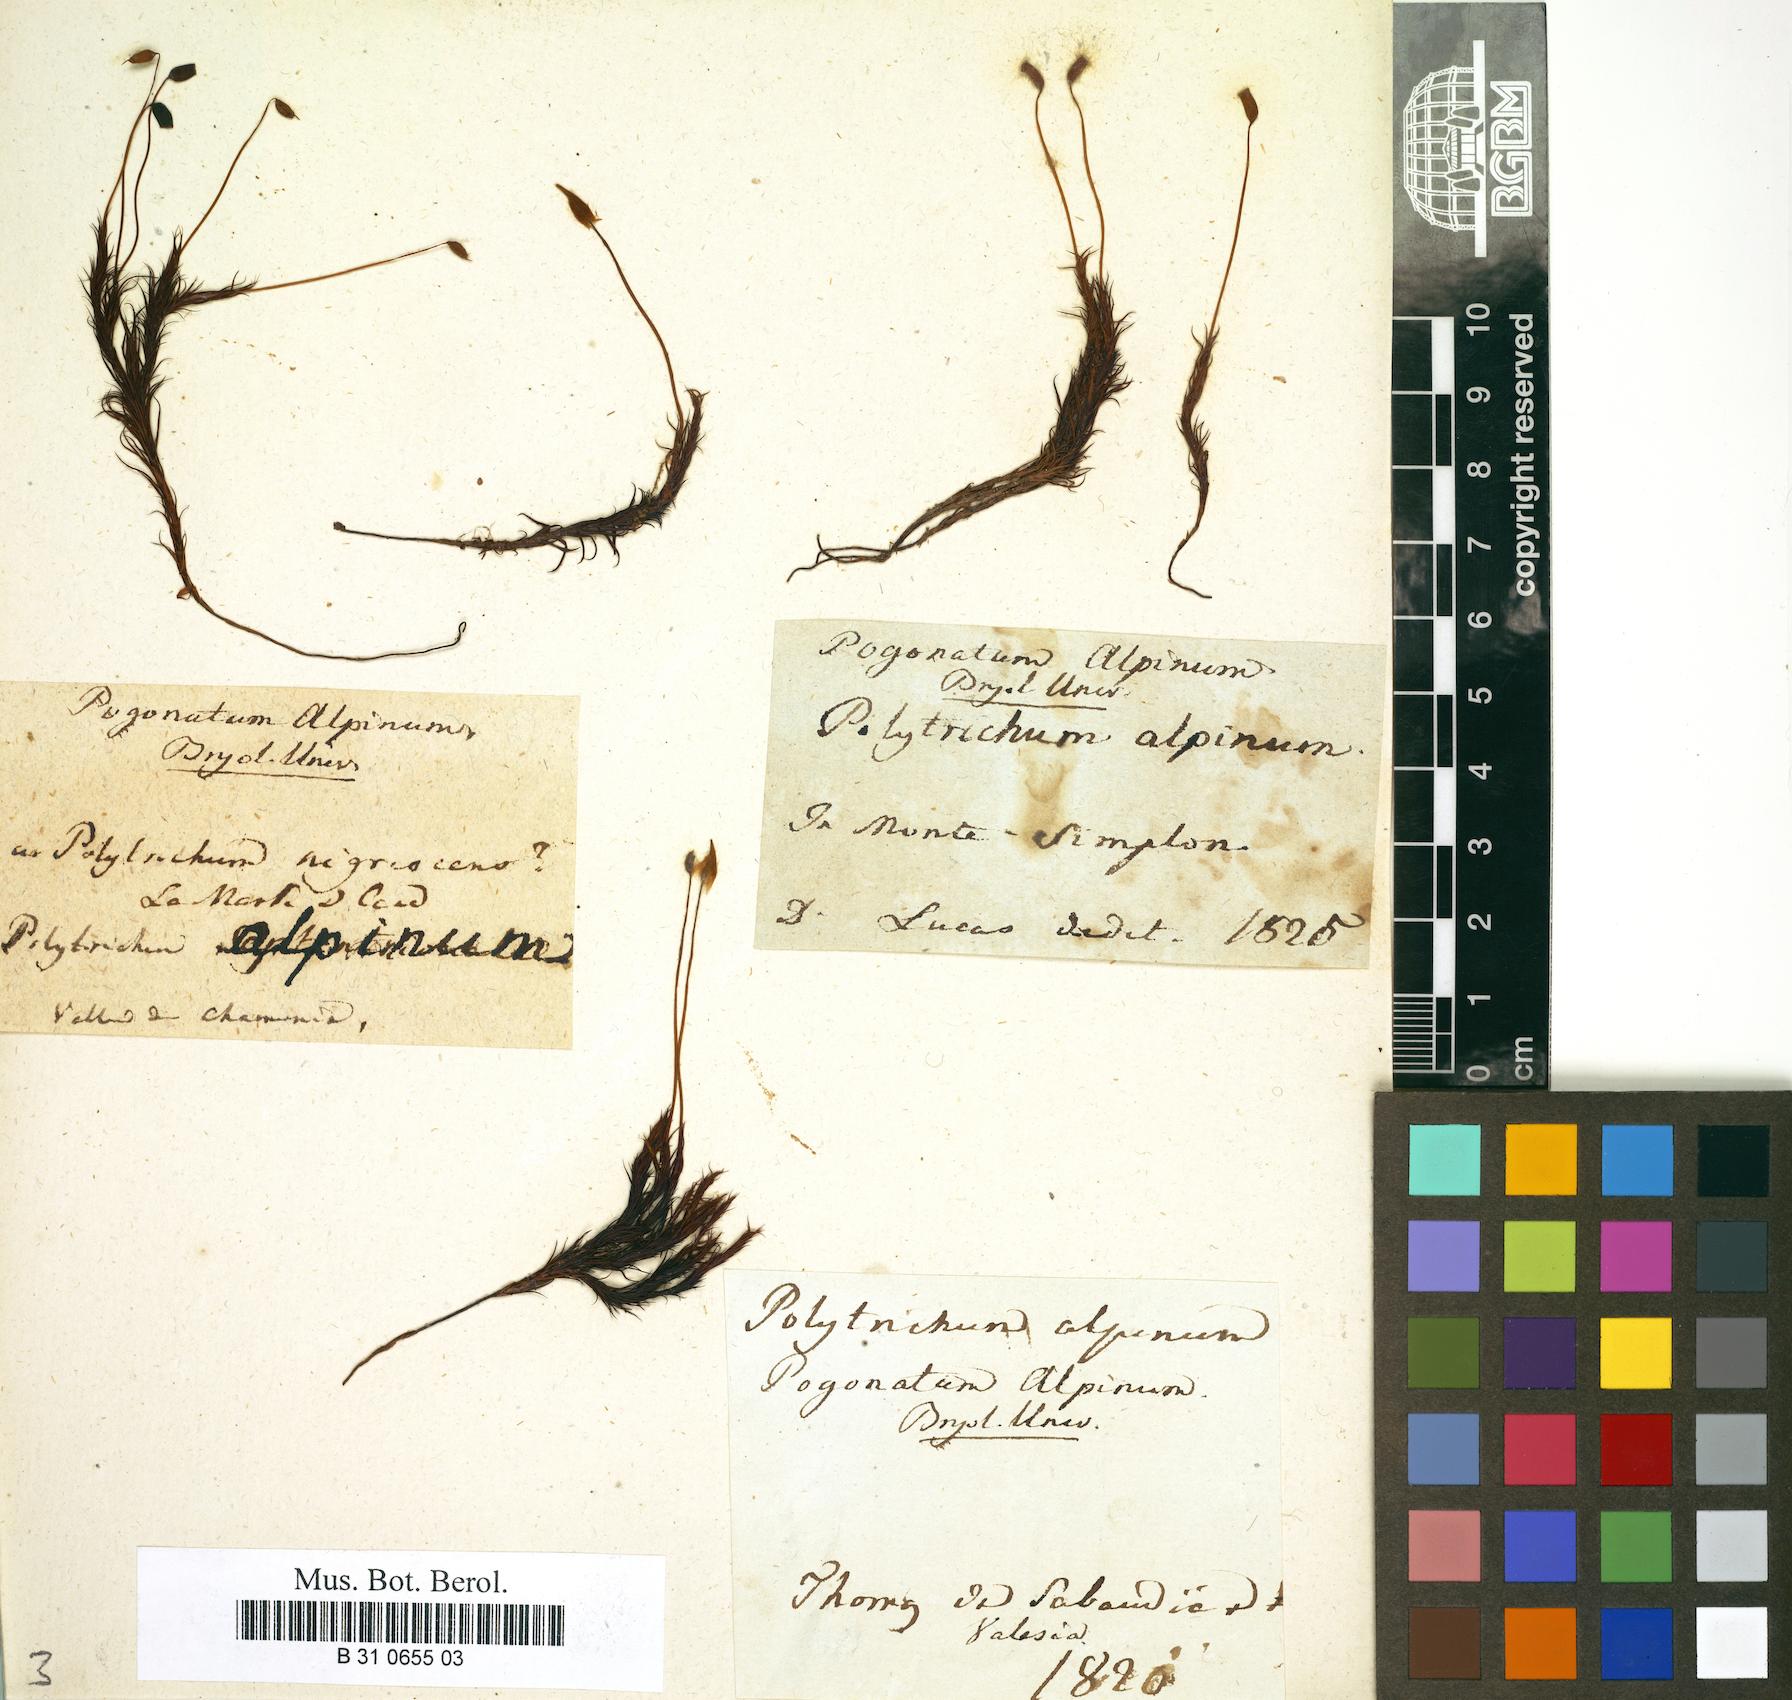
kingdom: Plantae
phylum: Bryophyta
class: Polytrichopsida
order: Polytrichales
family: Polytrichaceae
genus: Polytrichastrum
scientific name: Polytrichastrum alpinum
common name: Alpine haircap
